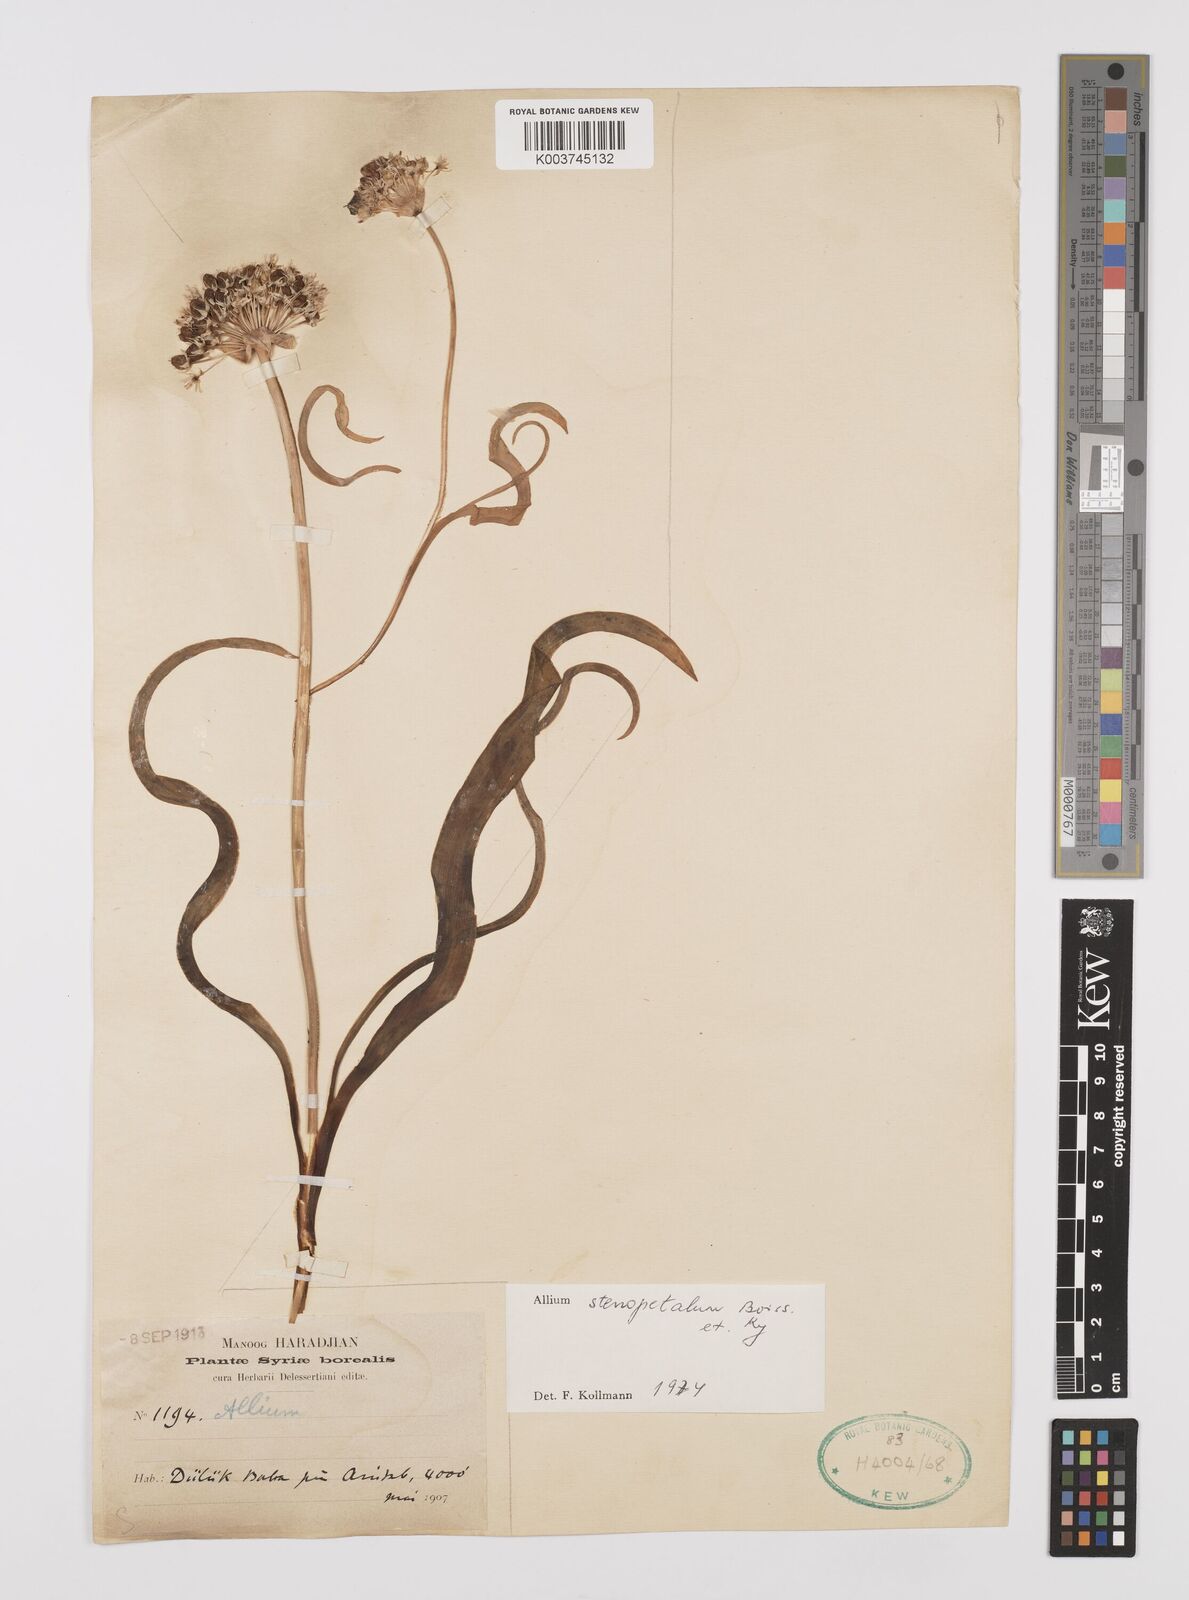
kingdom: Plantae
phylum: Tracheophyta
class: Liliopsida
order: Asparagales
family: Amaryllidaceae
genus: Allium
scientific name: Allium stenopetalum
